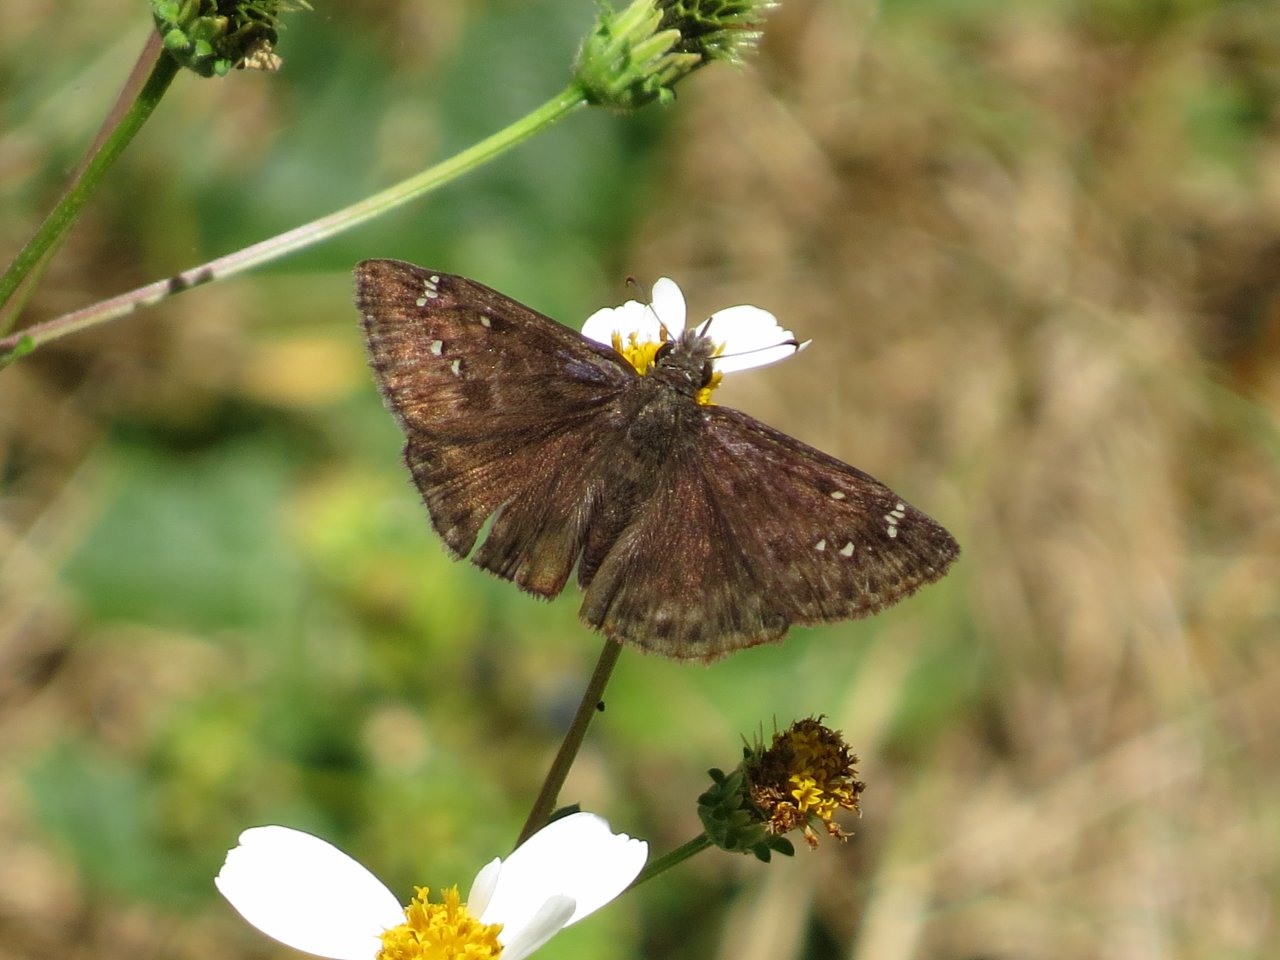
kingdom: Animalia
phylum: Arthropoda
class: Insecta
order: Lepidoptera
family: Hesperiidae
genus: Gesta
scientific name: Gesta
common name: Horace's Duskywing
